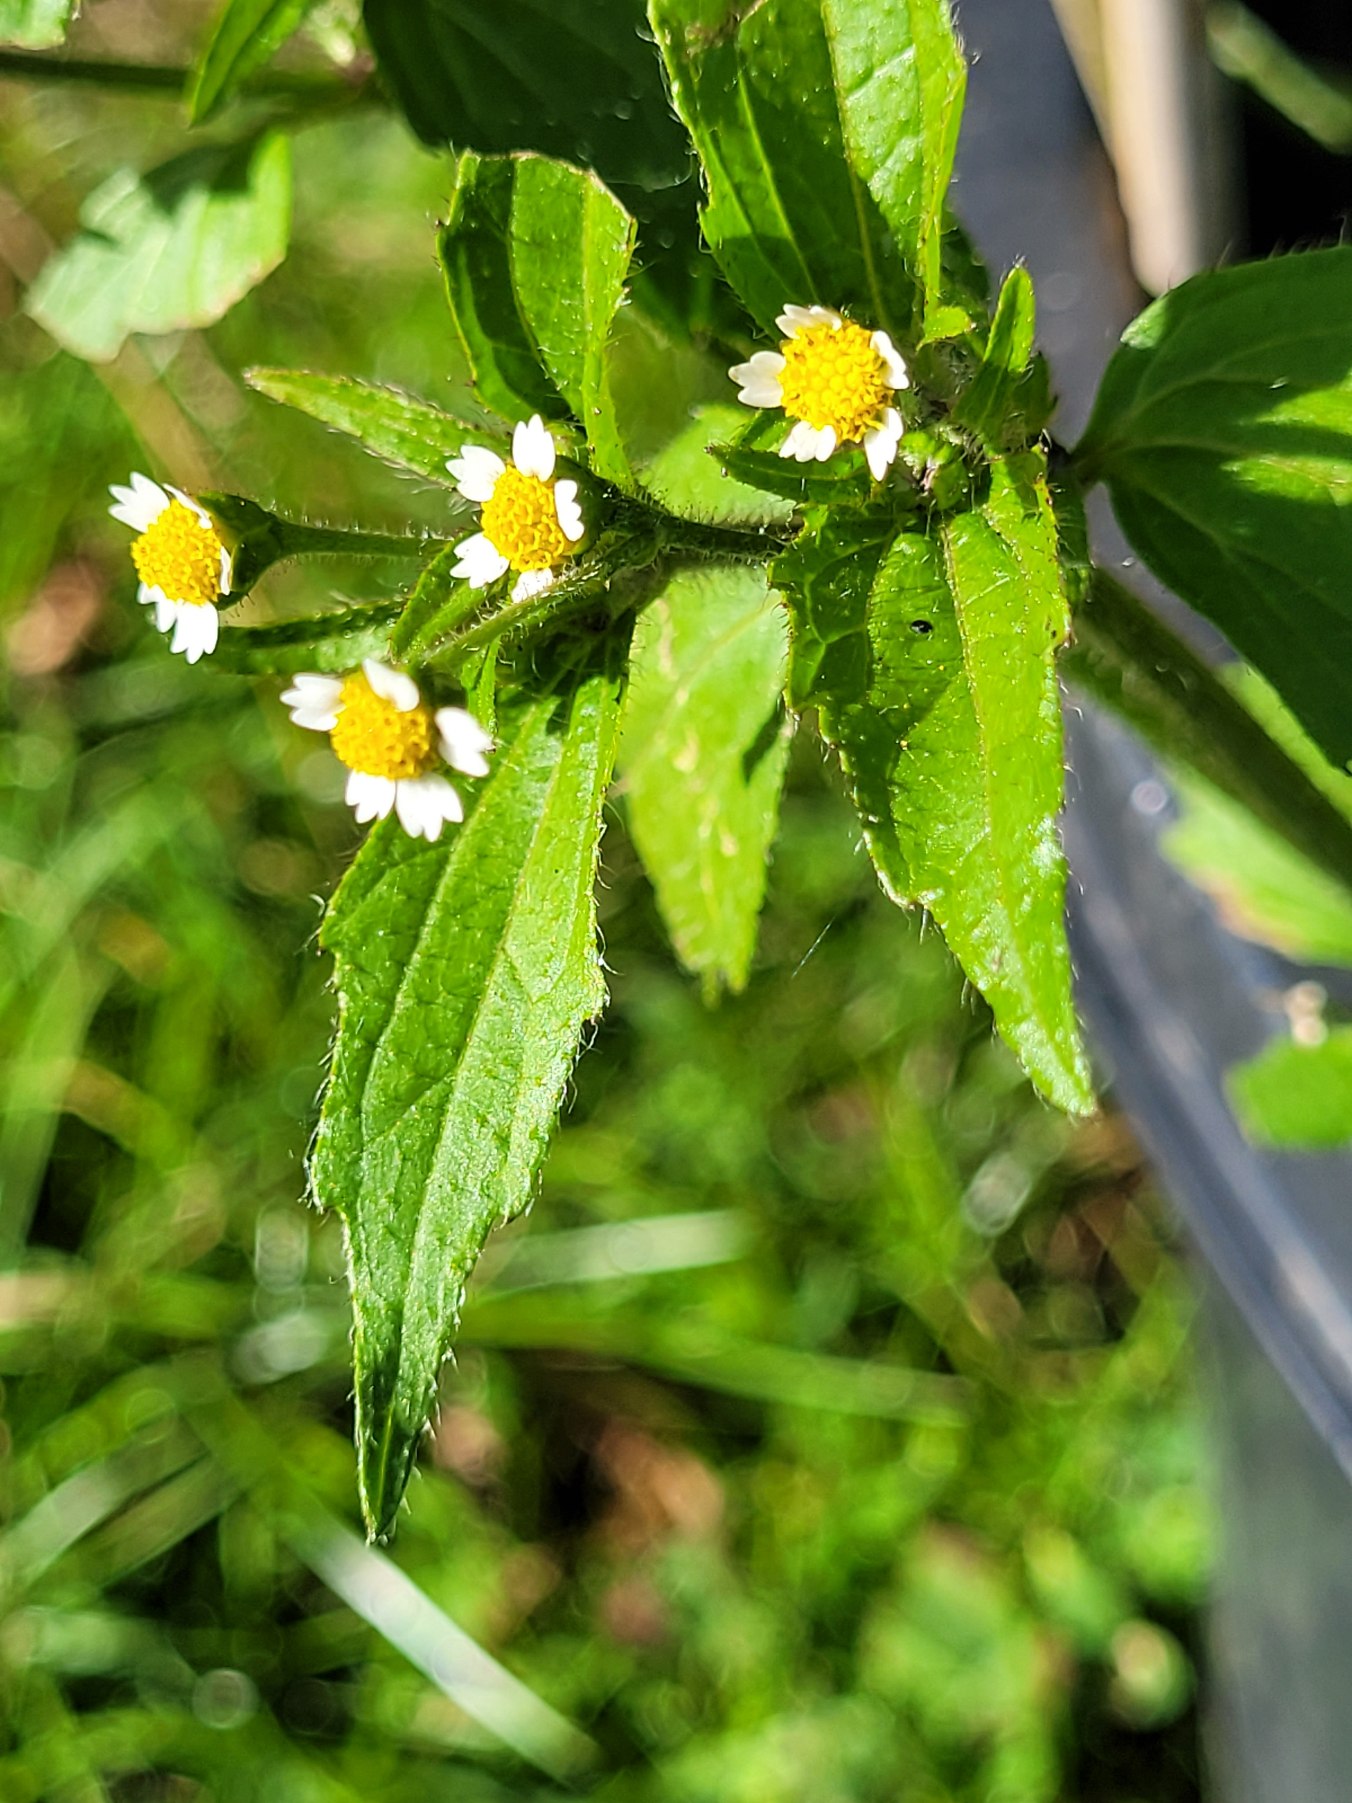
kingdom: Plantae
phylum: Tracheophyta
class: Magnoliopsida
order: Asterales
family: Asteraceae
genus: Galinsoga
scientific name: Galinsoga quadriradiata
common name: Kirtel-kortstråle
